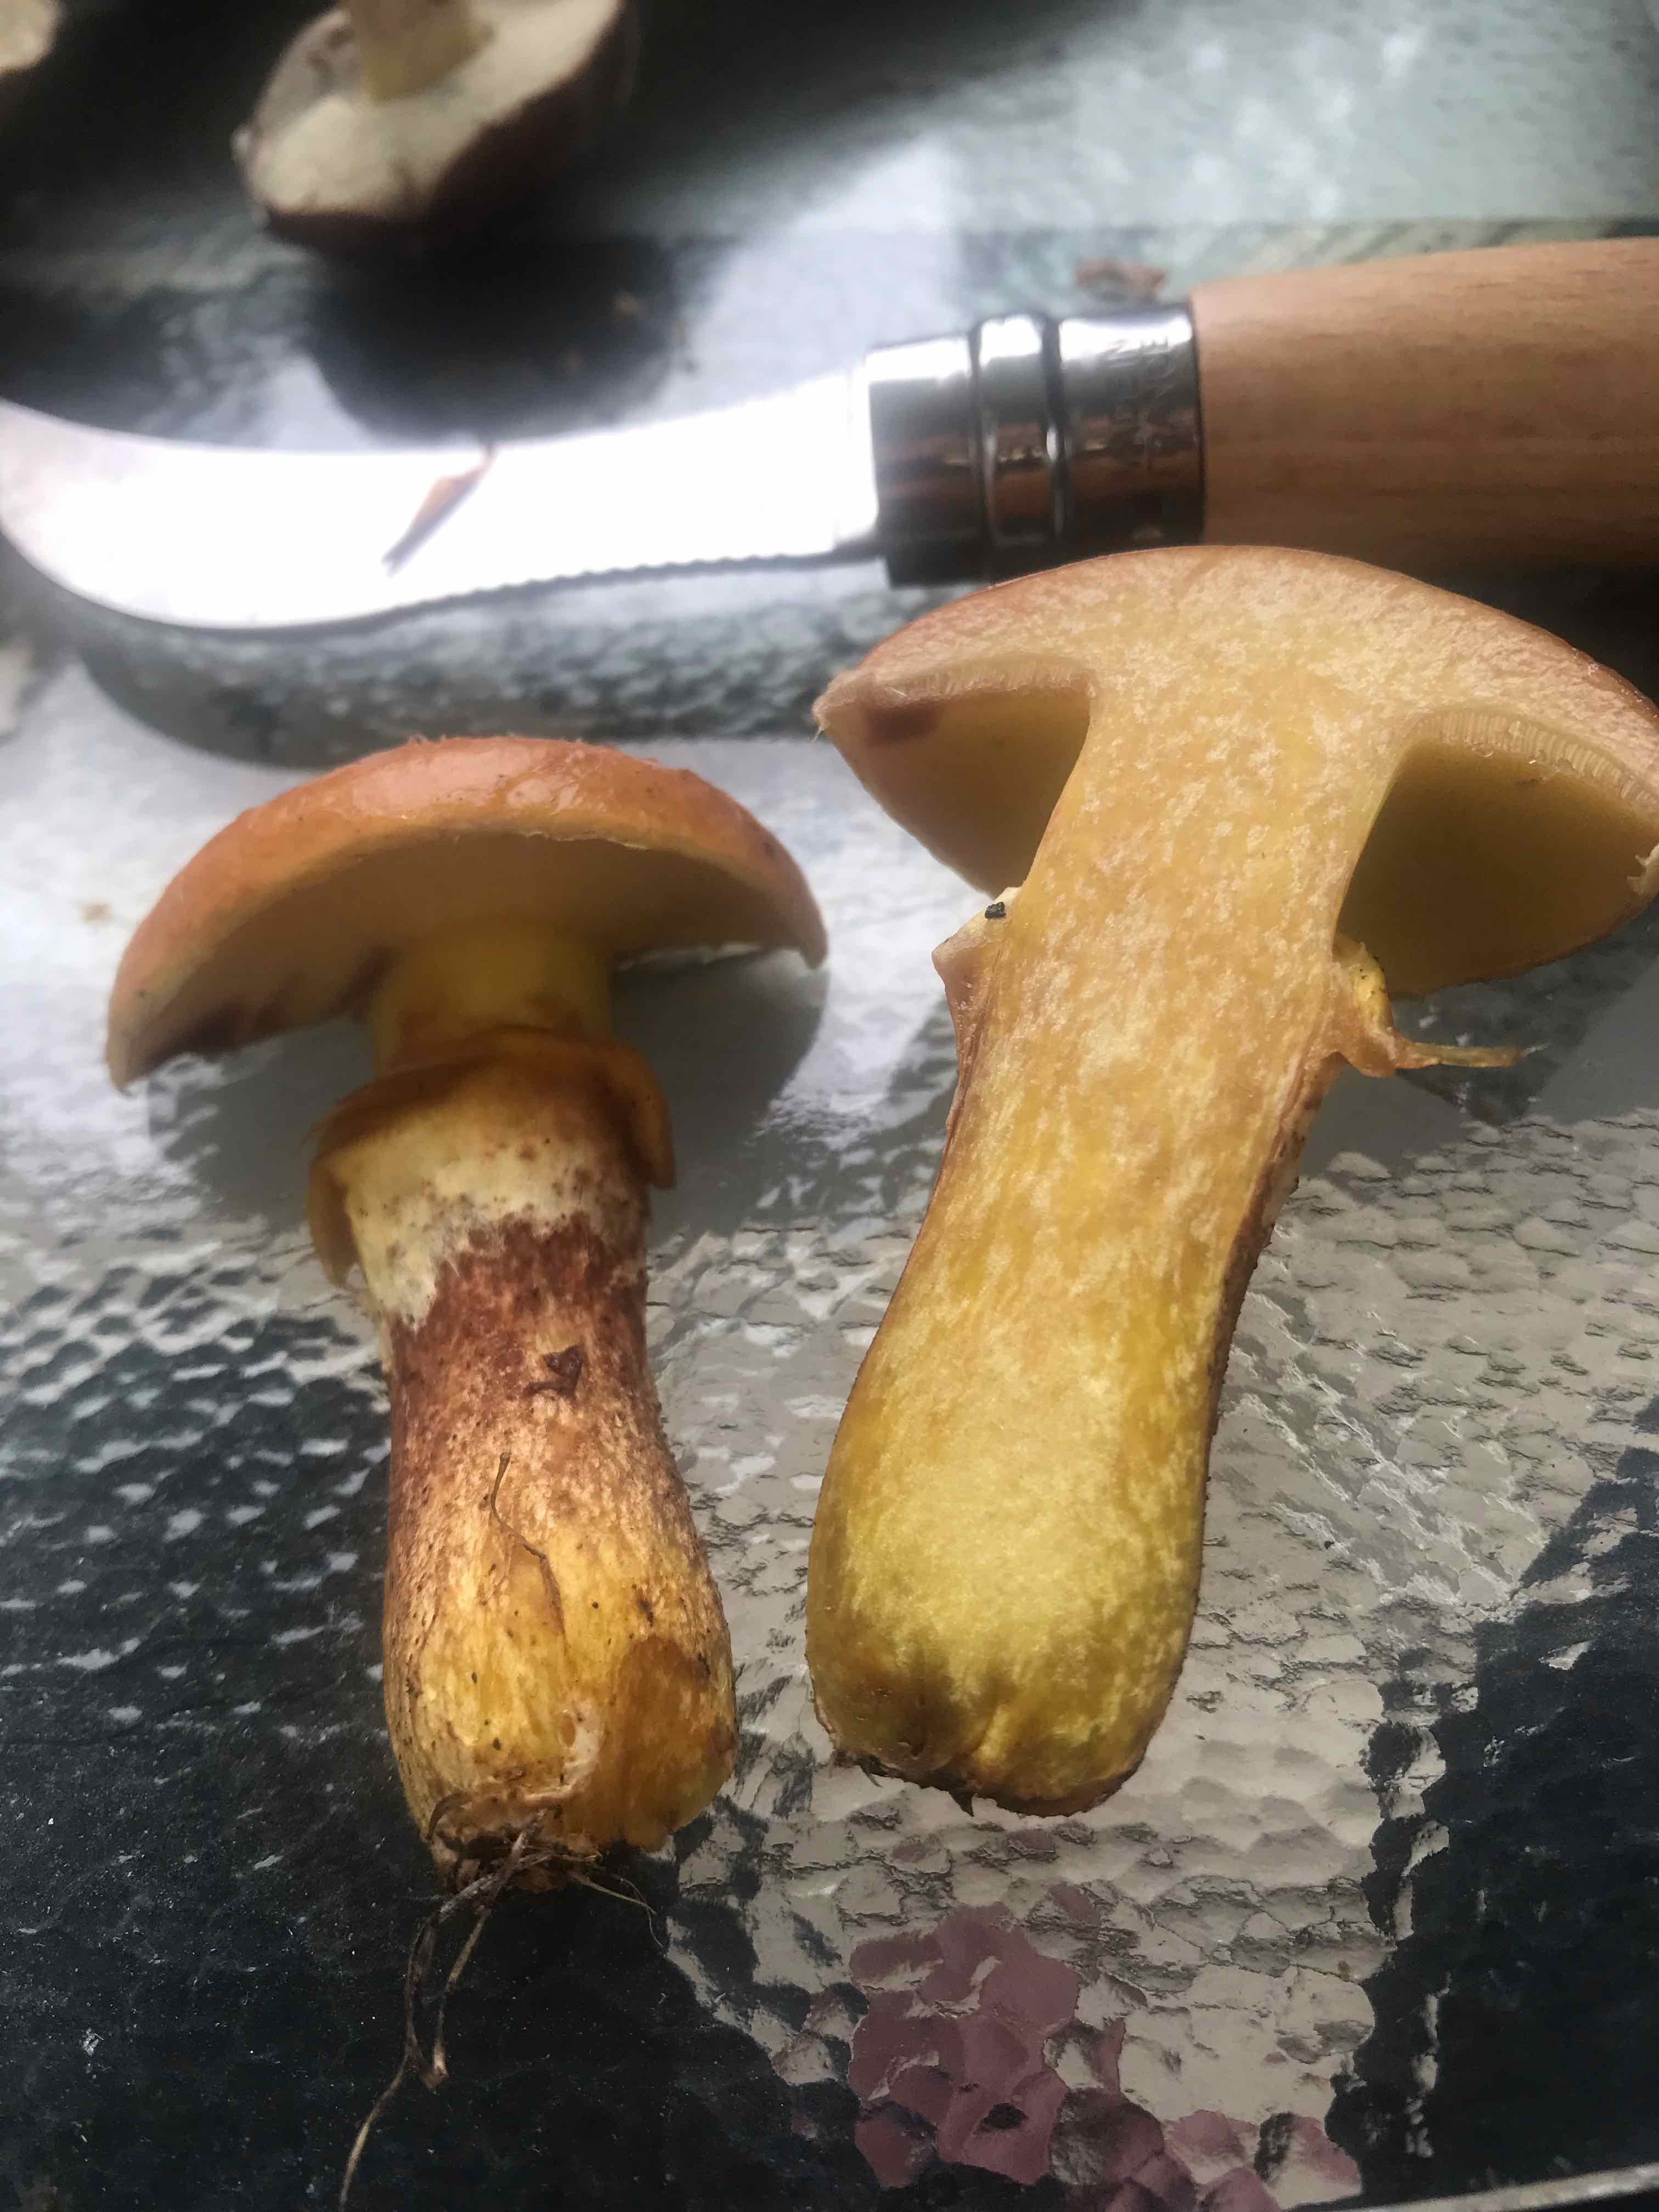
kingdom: Fungi
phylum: Basidiomycota
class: Agaricomycetes
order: Boletales
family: Suillaceae
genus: Suillus
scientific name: Suillus grevillei
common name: lærke-slimrørhat
